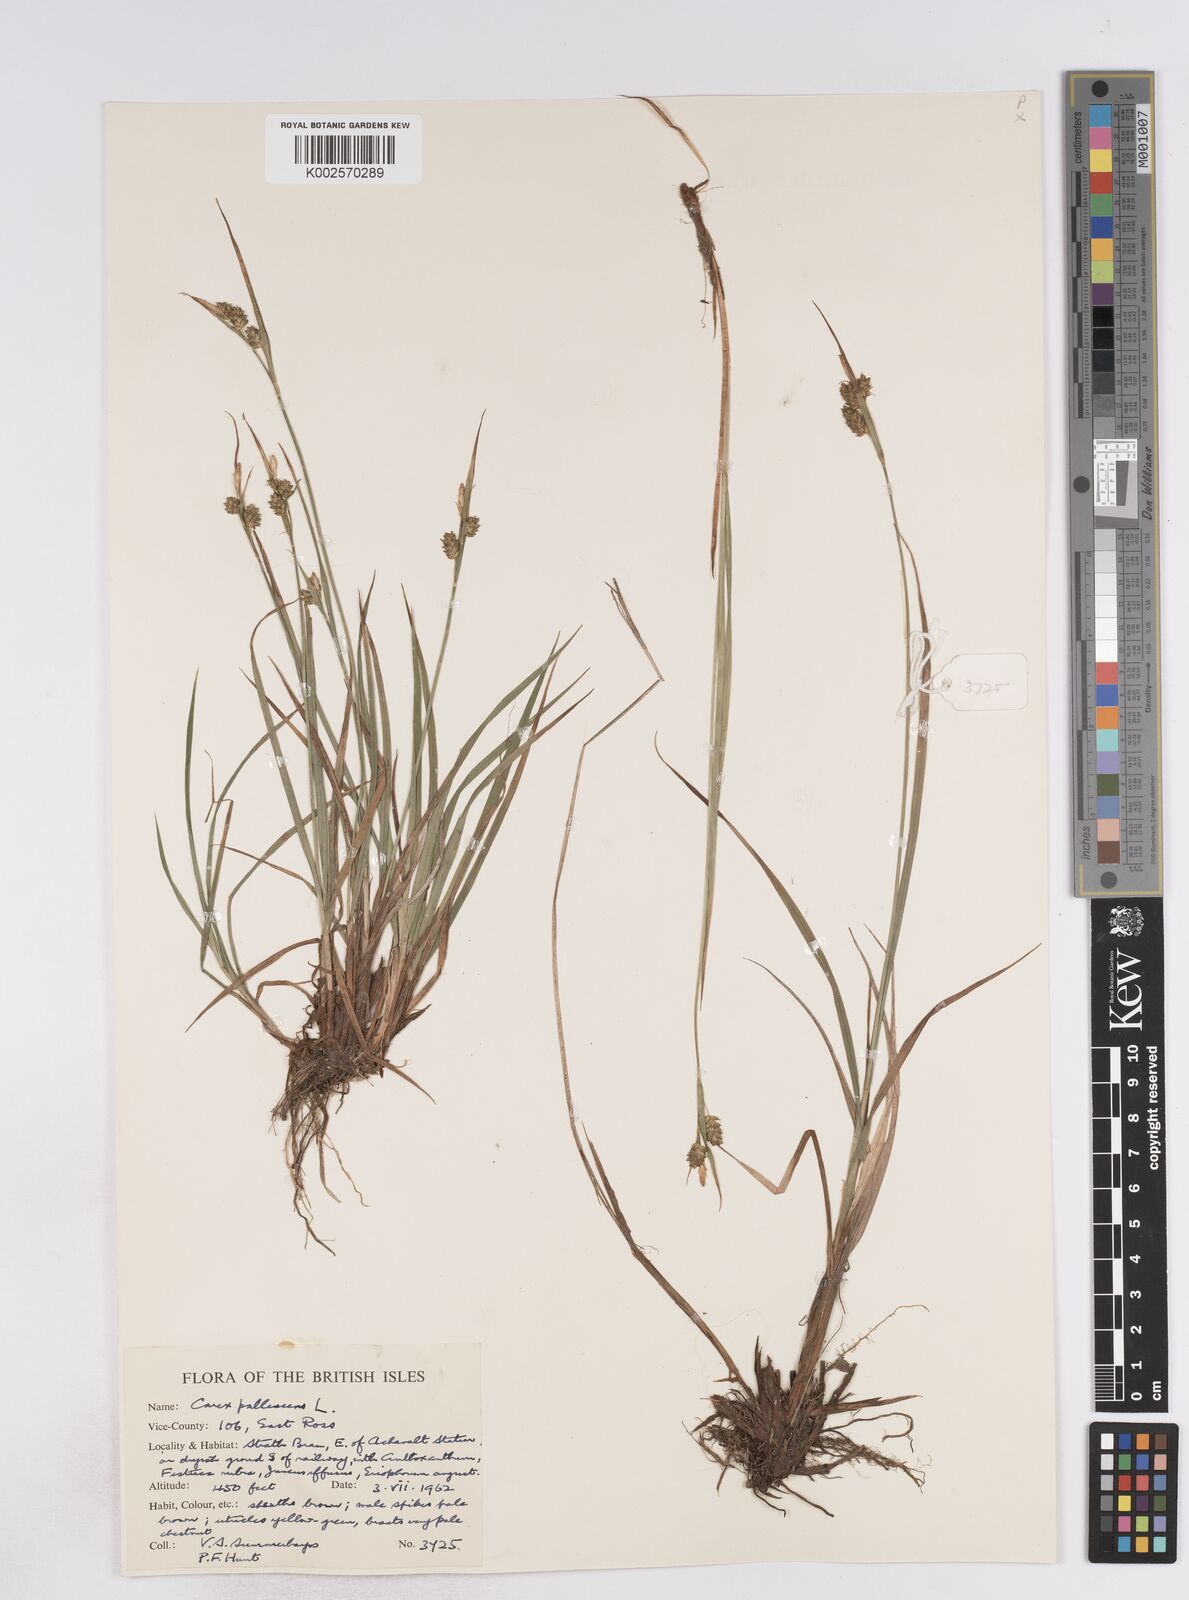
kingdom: Plantae
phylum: Tracheophyta
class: Liliopsida
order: Poales
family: Cyperaceae
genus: Carex
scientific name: Carex pallescens
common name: Pale sedge
